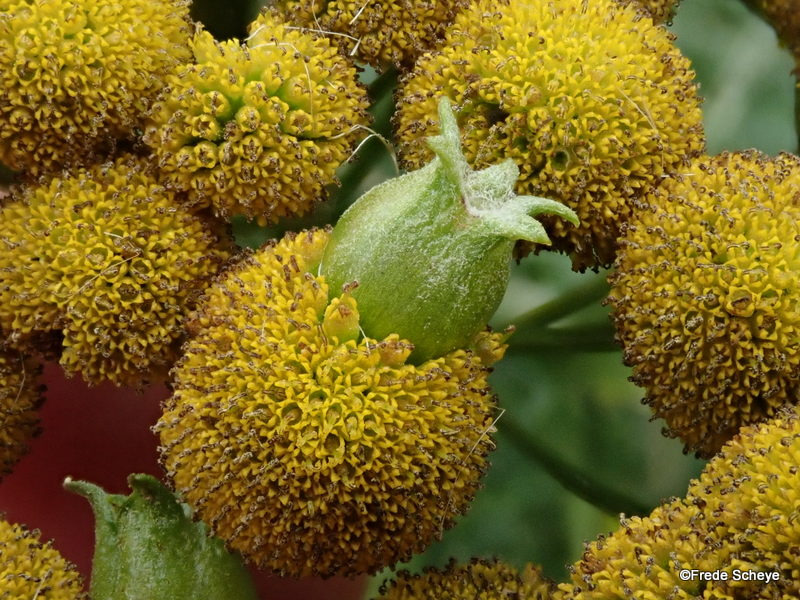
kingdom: Animalia
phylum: Arthropoda
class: Insecta
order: Diptera
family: Cecidomyiidae
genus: Rhopalomyia
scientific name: Rhopalomyia tanaceticolus
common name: Rejnfangalmyg
